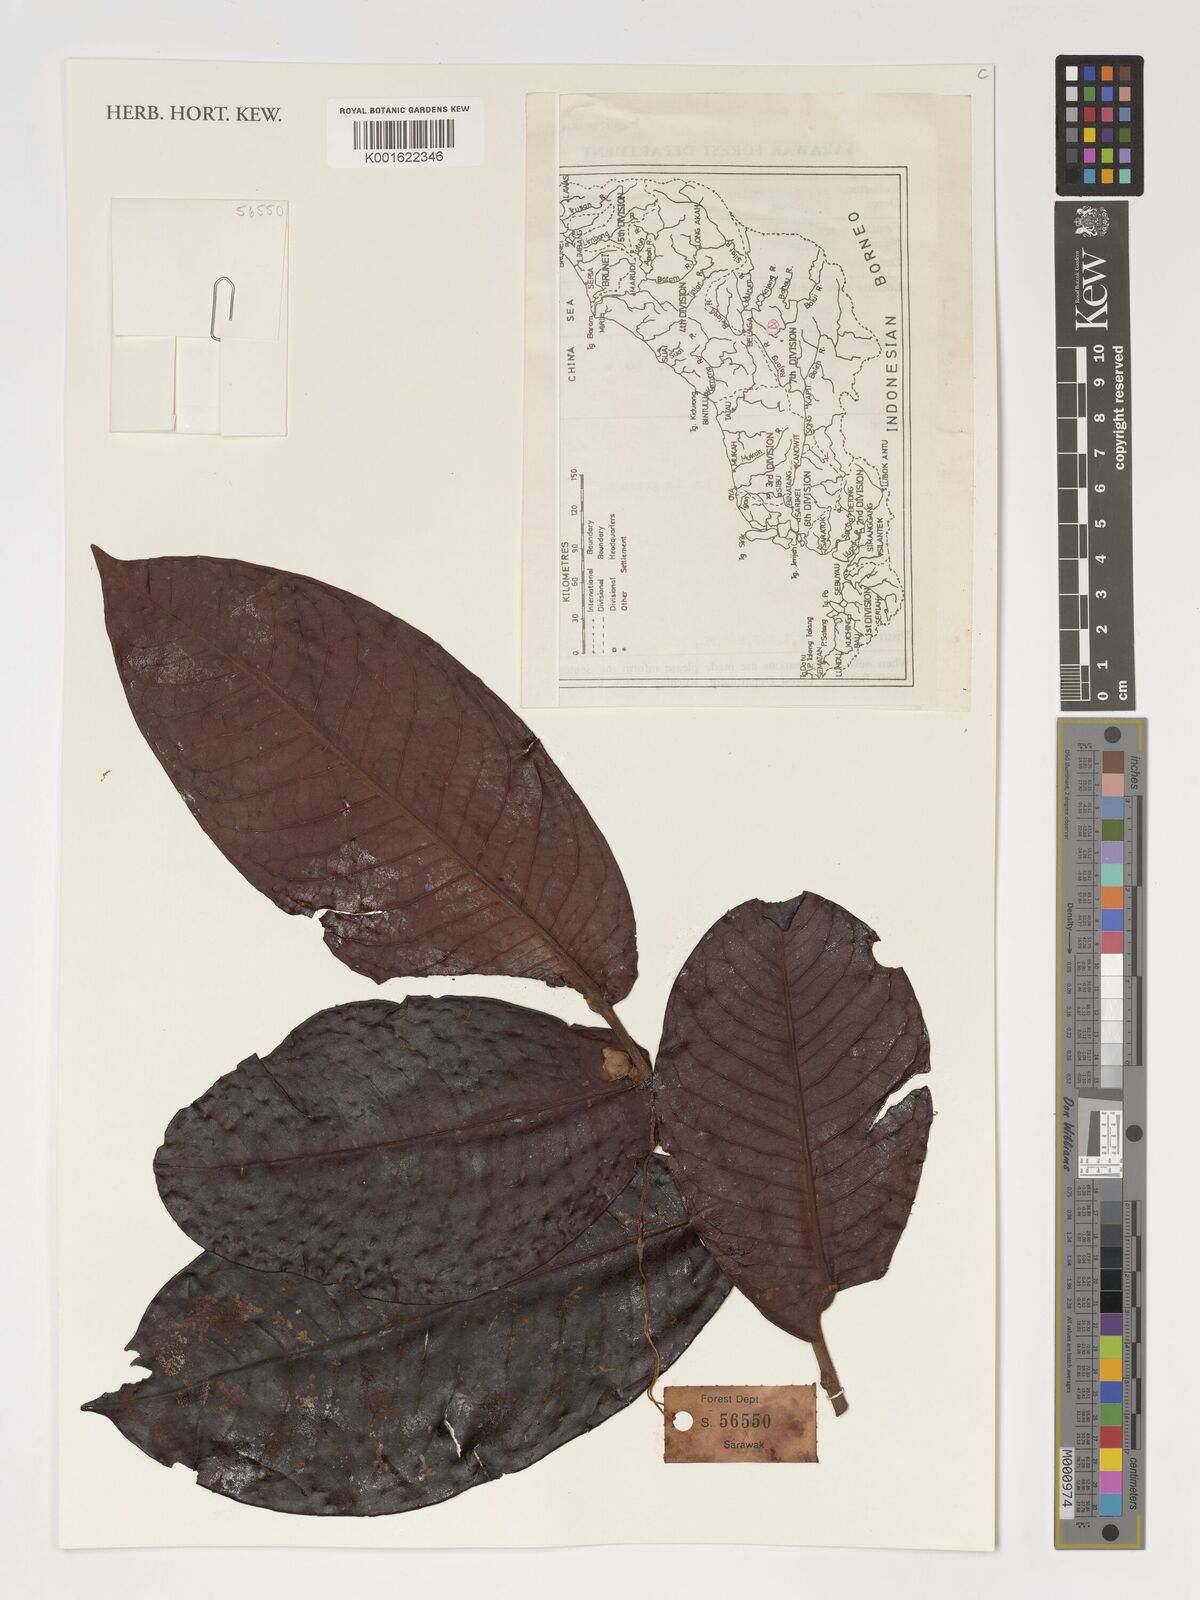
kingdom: Plantae
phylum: Tracheophyta
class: Magnoliopsida
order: Ericales
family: Theaceae
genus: Schima
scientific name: Schima
